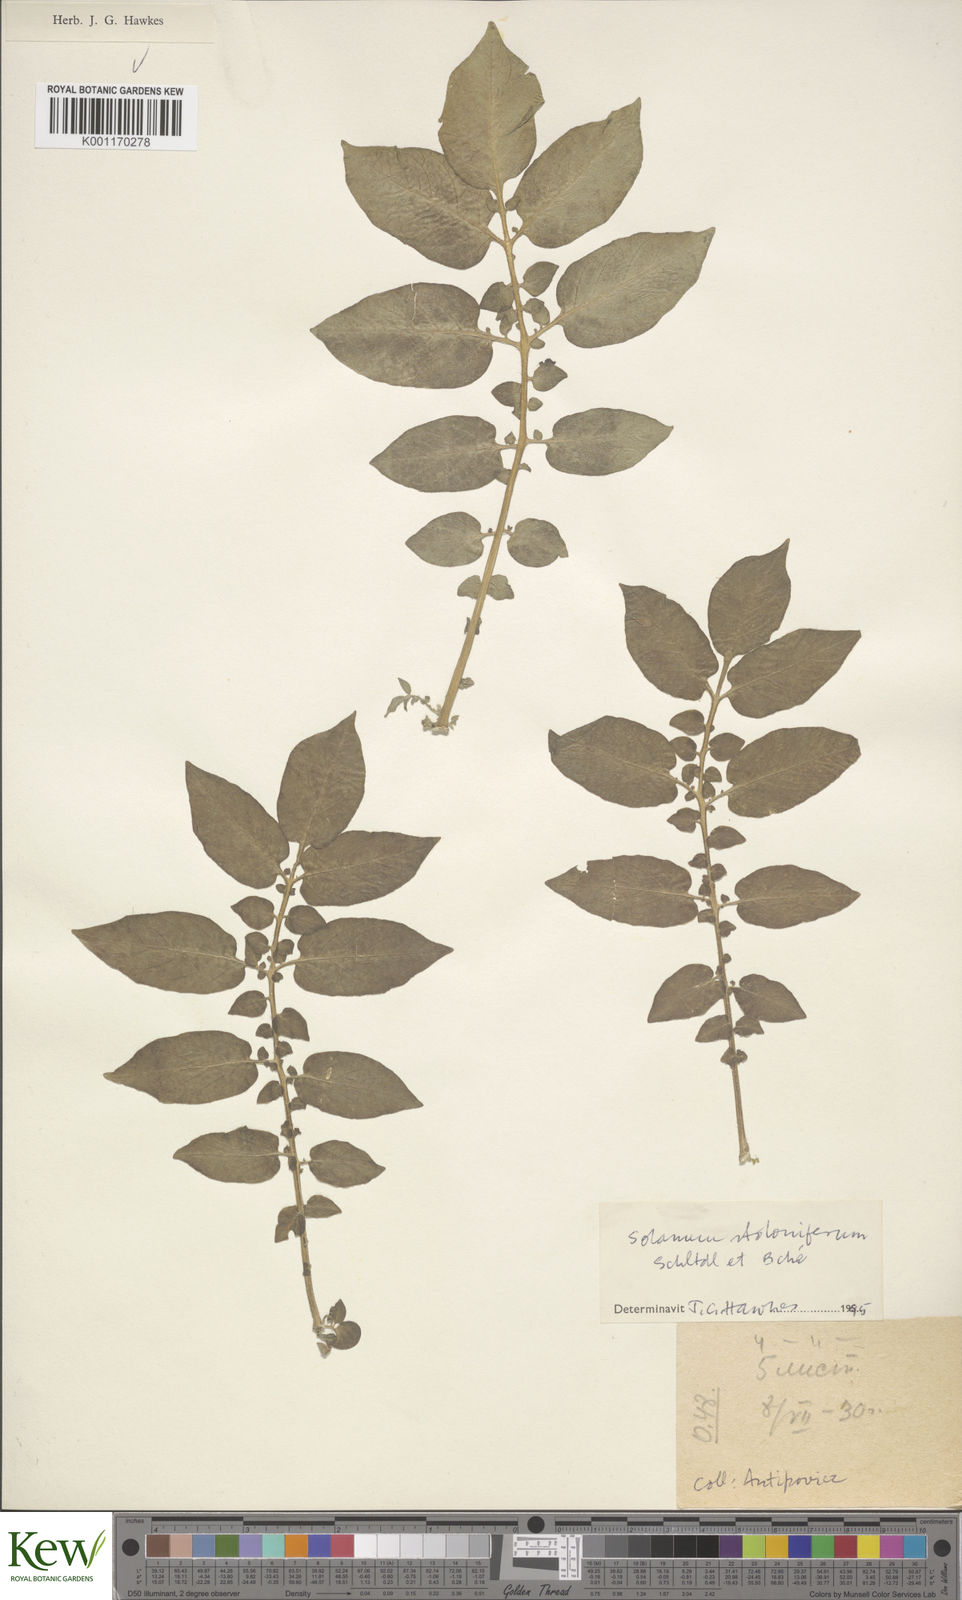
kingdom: Plantae
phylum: Tracheophyta
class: Magnoliopsida
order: Solanales
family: Solanaceae
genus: Solanum
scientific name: Solanum stoloniferum
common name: Fendler's nighshade
